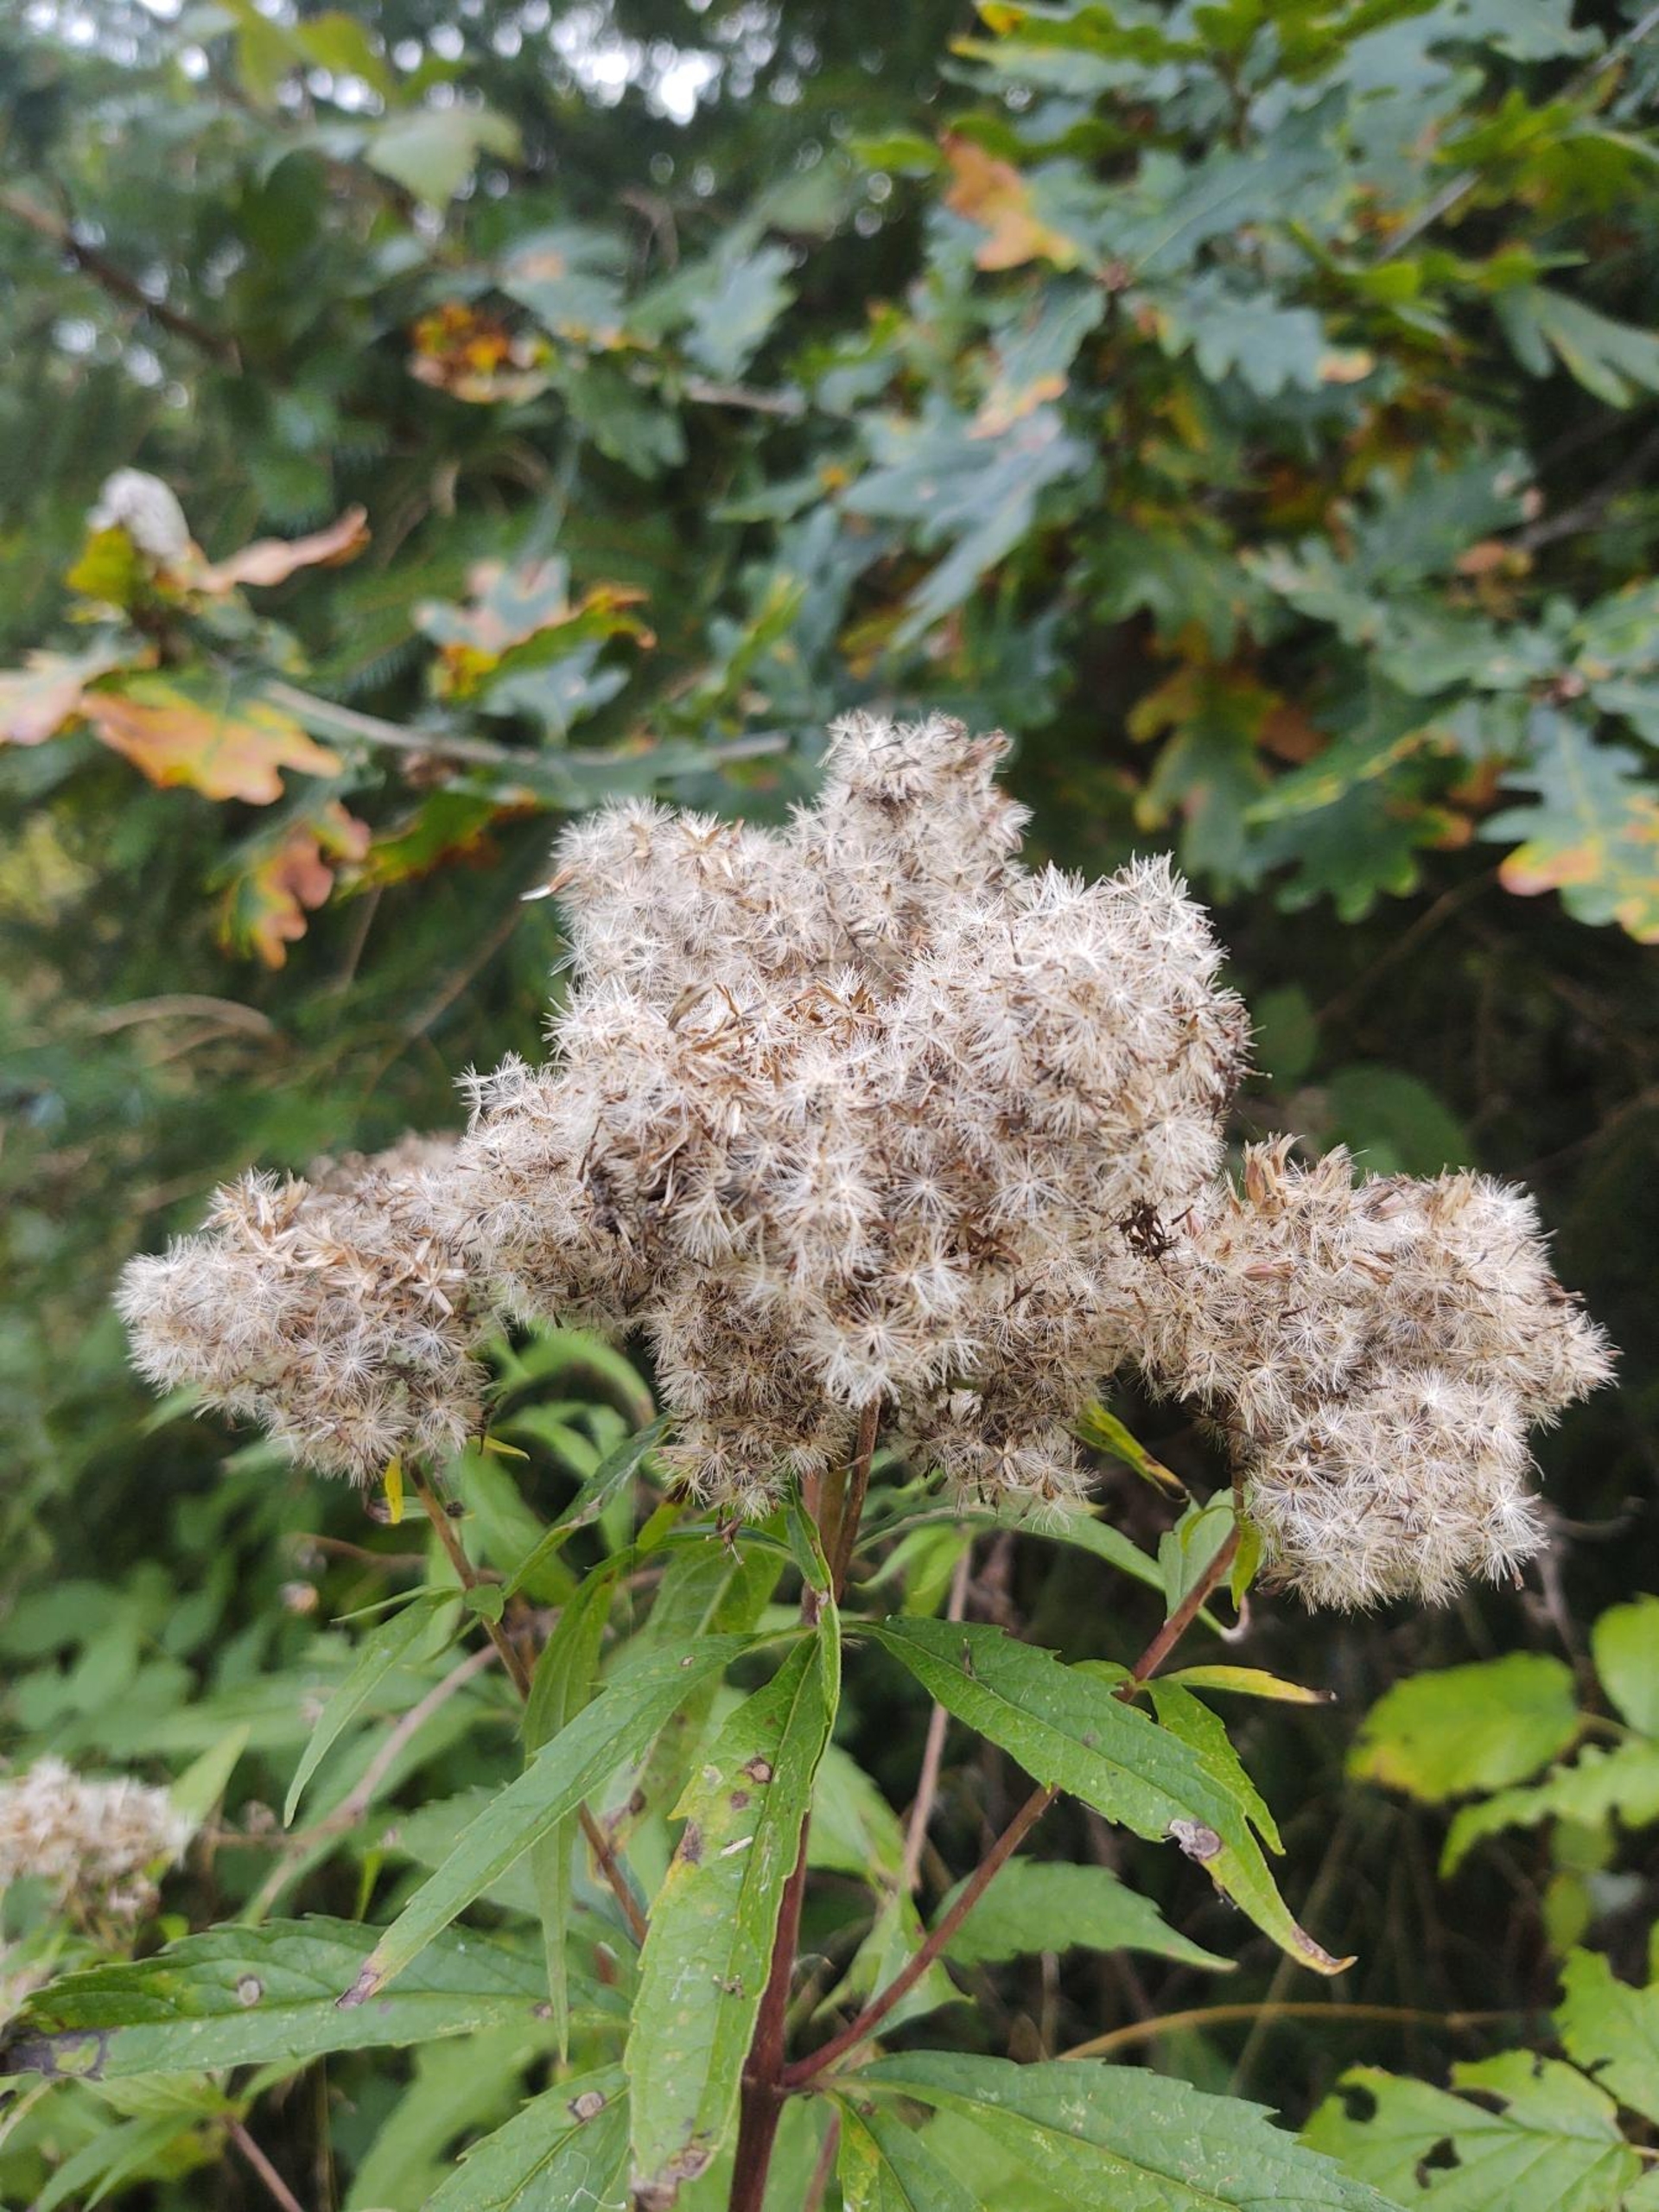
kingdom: Plantae
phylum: Tracheophyta
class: Magnoliopsida
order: Asterales
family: Asteraceae
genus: Eupatorium
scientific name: Eupatorium cannabinum
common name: Hjortetrøst
